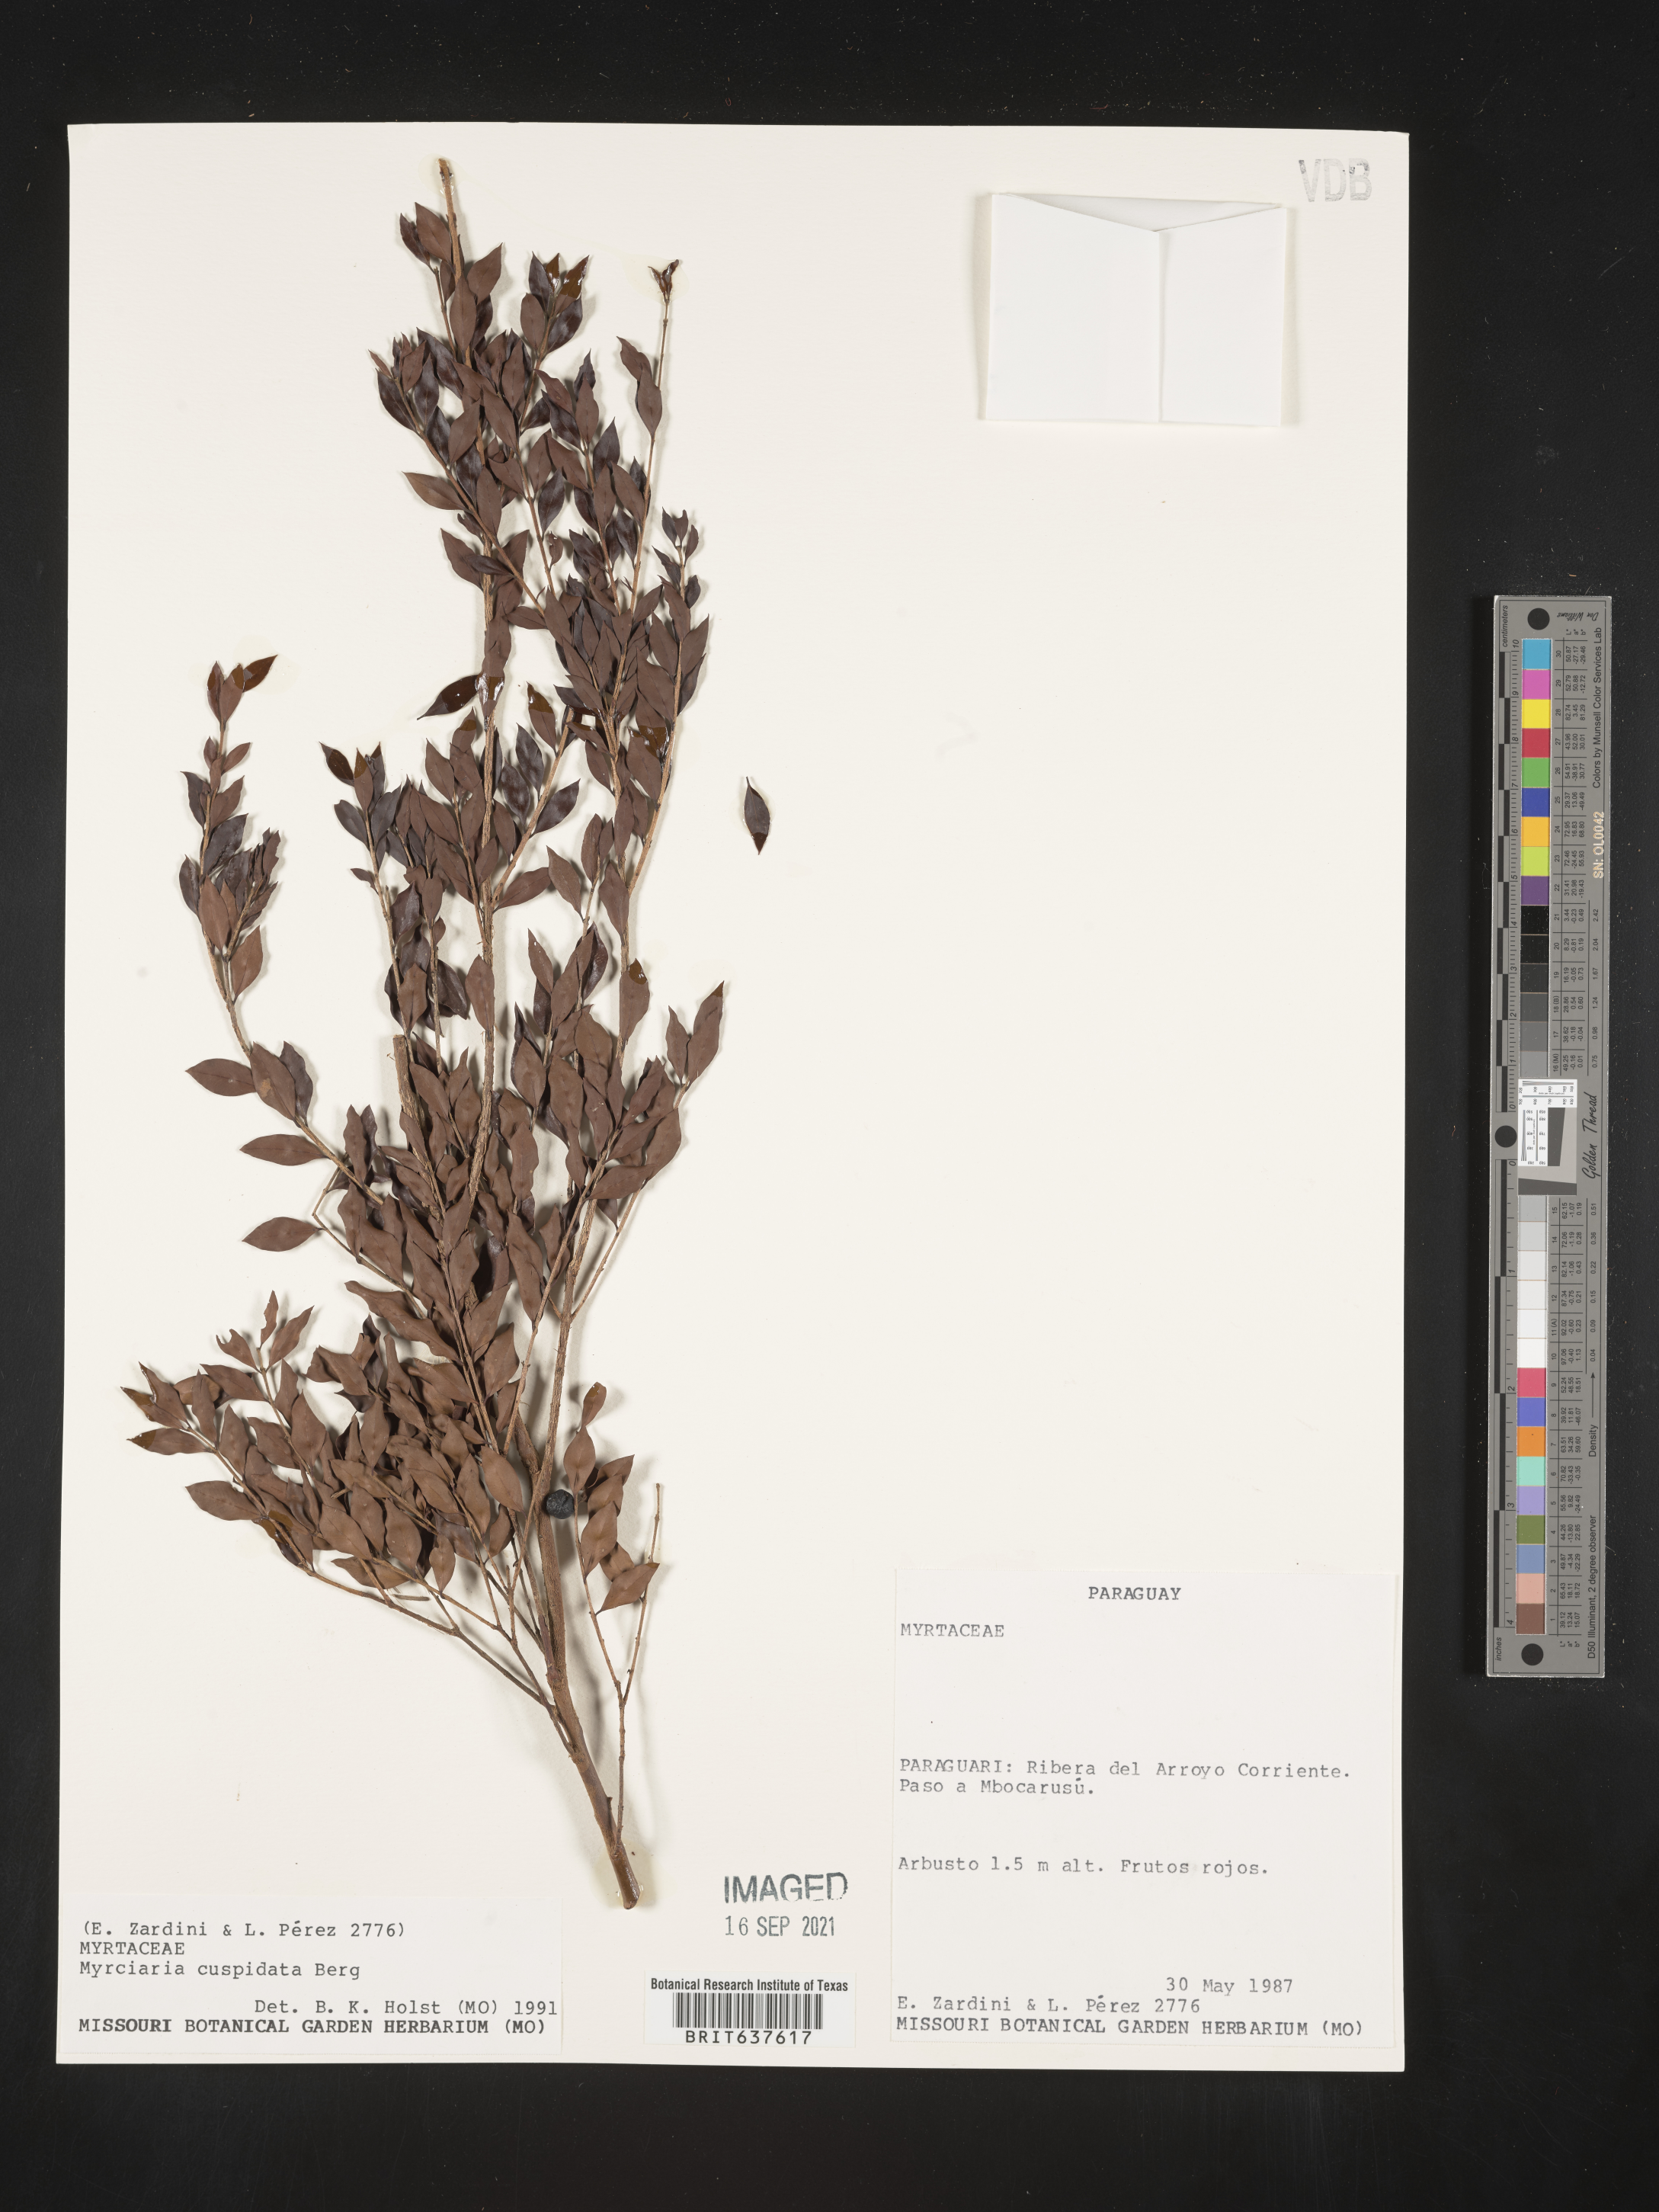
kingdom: Plantae
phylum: Tracheophyta
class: Magnoliopsida
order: Myrtales
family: Myrtaceae
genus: Myrciaria
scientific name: Myrciaria
